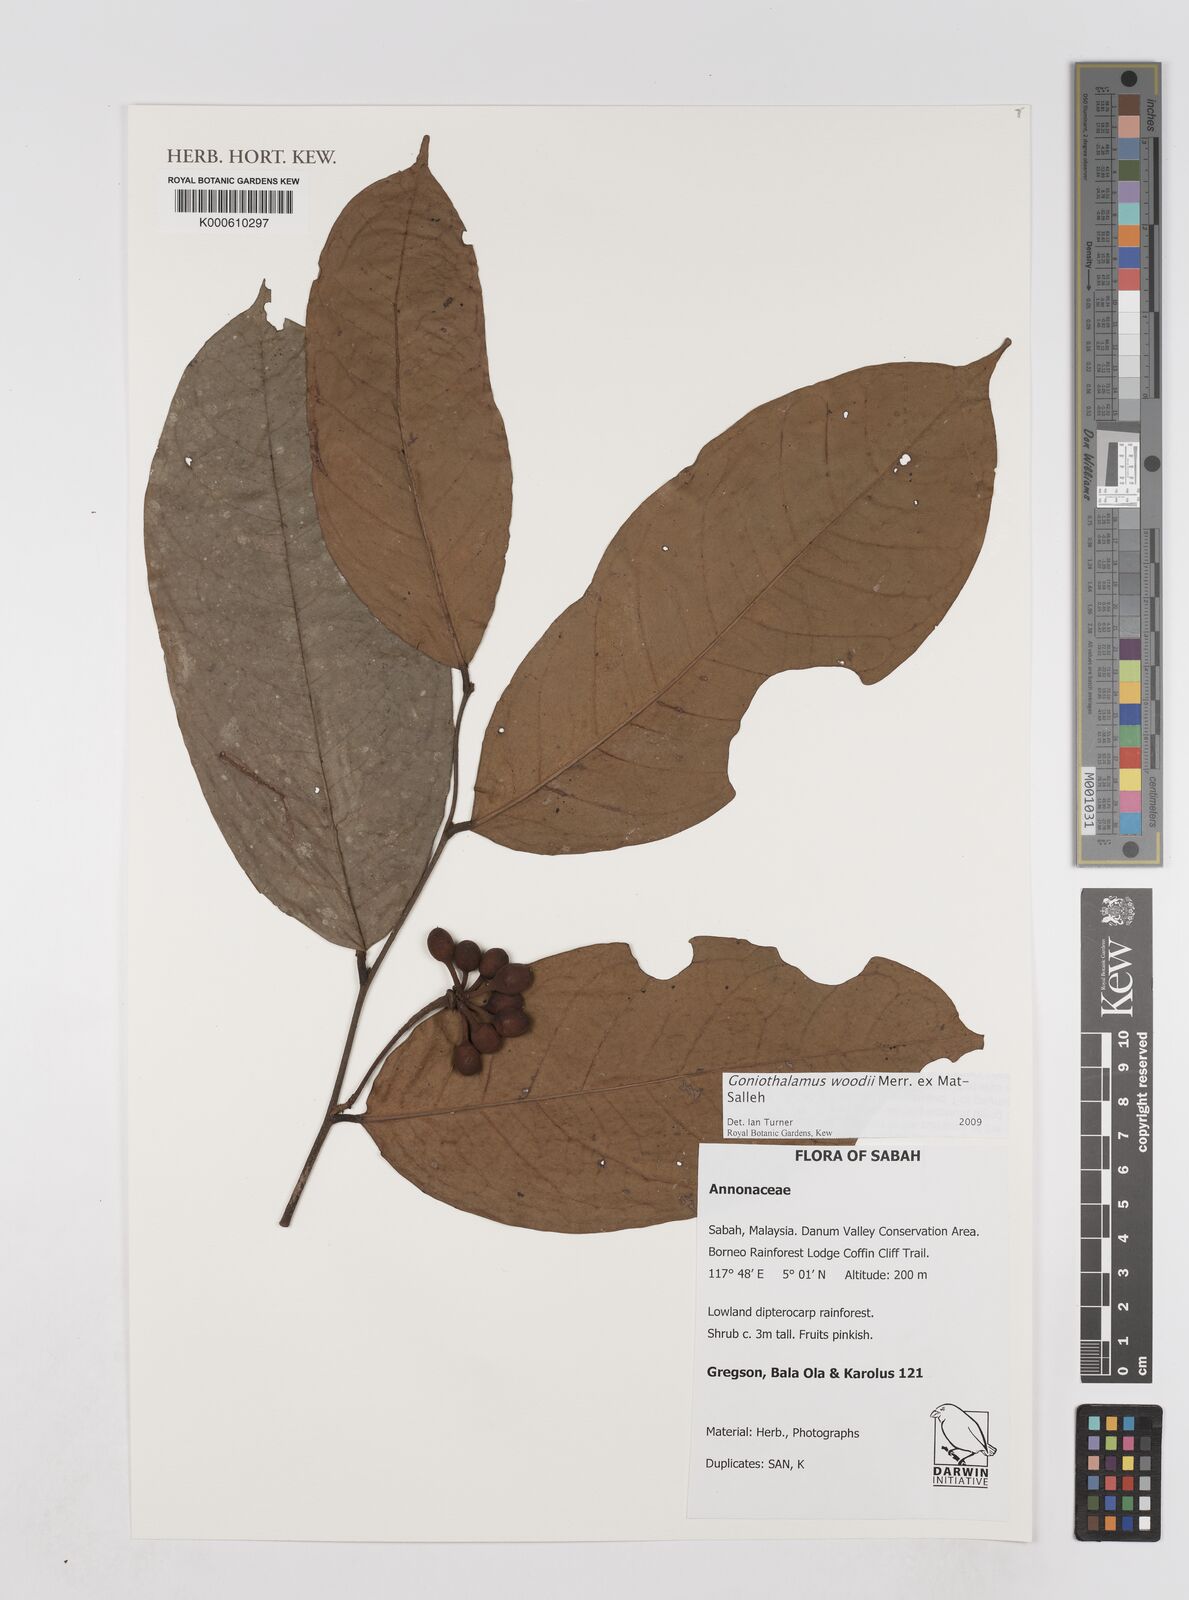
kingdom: Plantae
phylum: Tracheophyta
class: Magnoliopsida
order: Magnoliales
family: Annonaceae
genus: Goniothalamus
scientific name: Goniothalamus woodii
